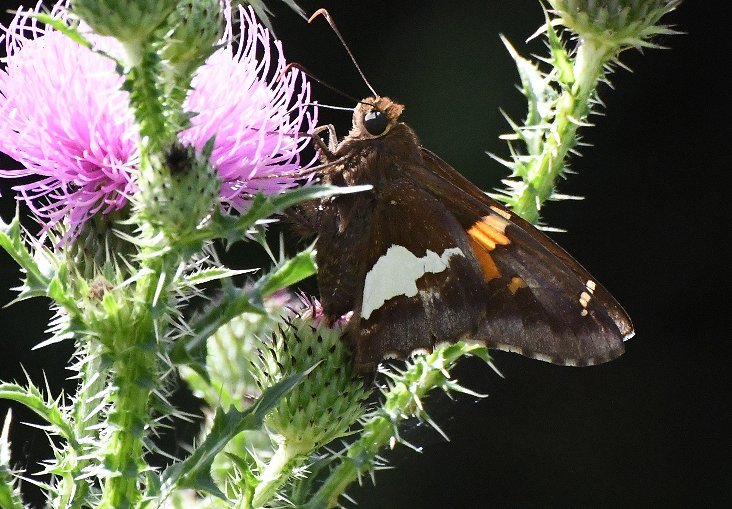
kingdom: Animalia
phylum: Arthropoda
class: Insecta
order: Lepidoptera
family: Hesperiidae
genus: Epargyreus
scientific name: Epargyreus clarus
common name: Silver-spotted Skipper
